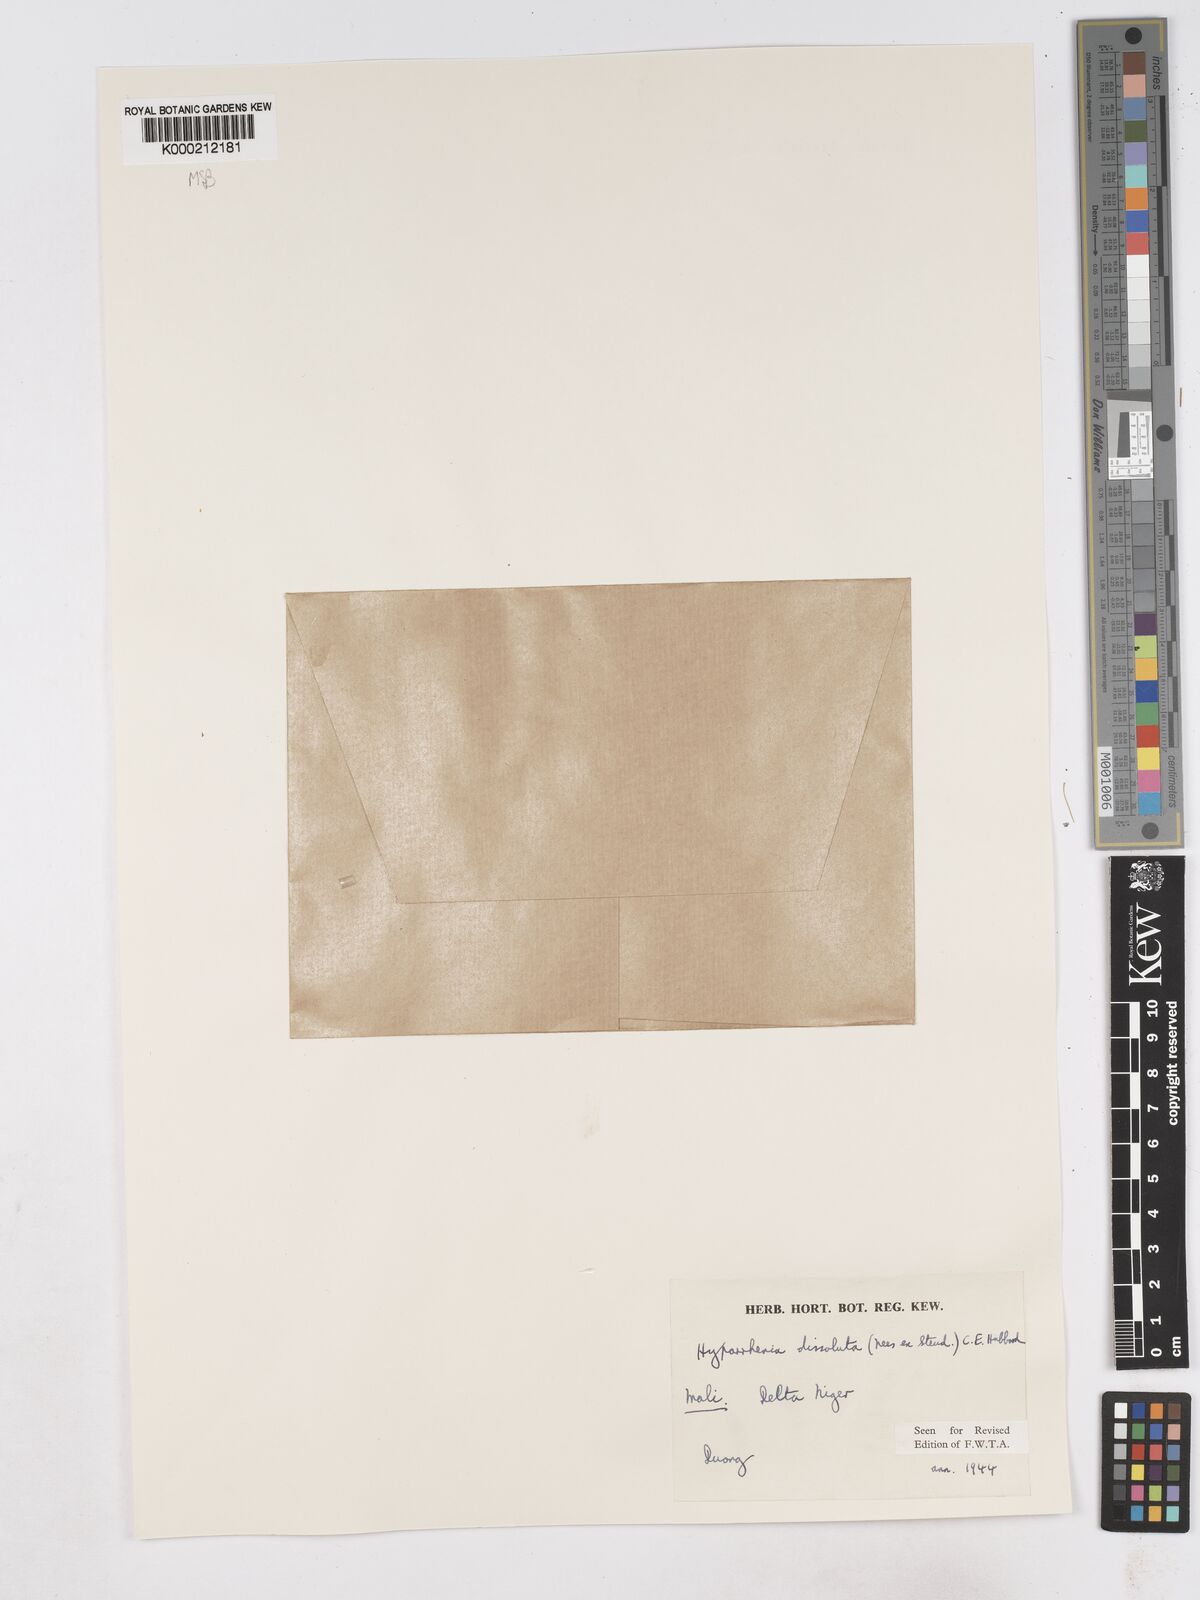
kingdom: Plantae
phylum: Tracheophyta
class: Liliopsida
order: Poales
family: Poaceae
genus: Hyperthelia
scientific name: Hyperthelia dissoluta
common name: Yellow thatching grass
